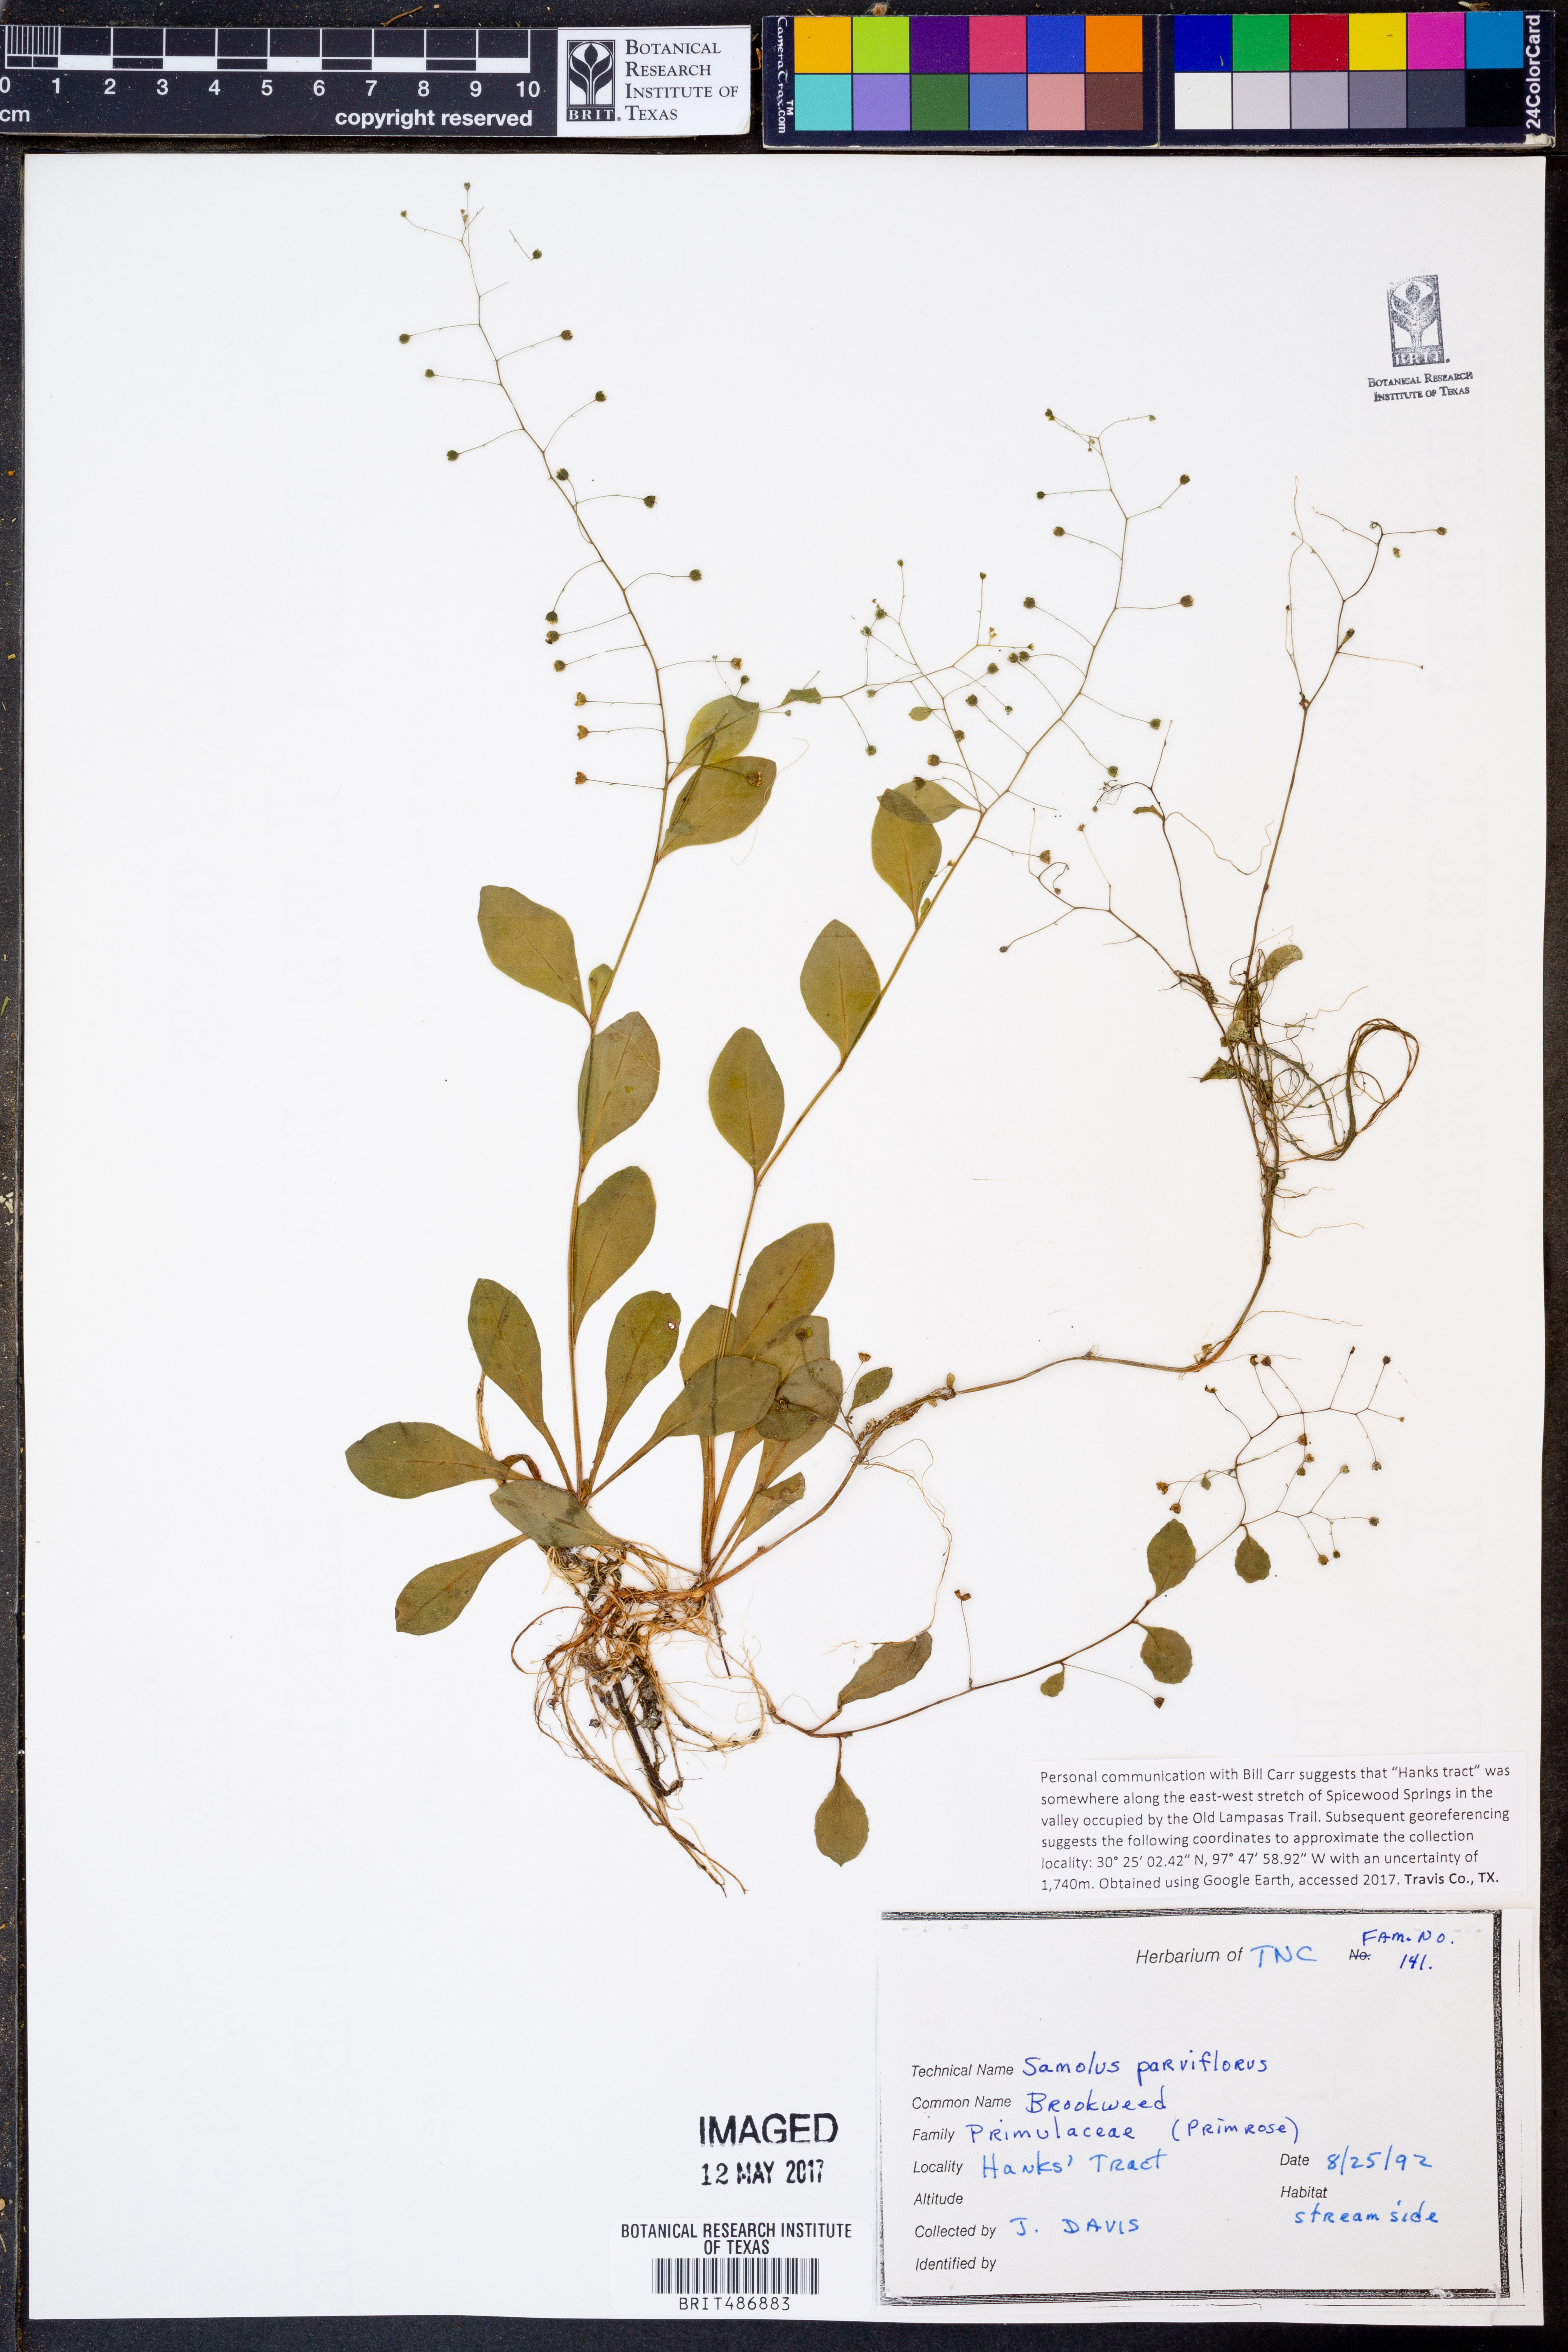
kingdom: Plantae
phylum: Tracheophyta
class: Magnoliopsida
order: Ericales
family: Primulaceae
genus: Samolus
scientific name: Samolus parviflorus
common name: False water pimpernel
